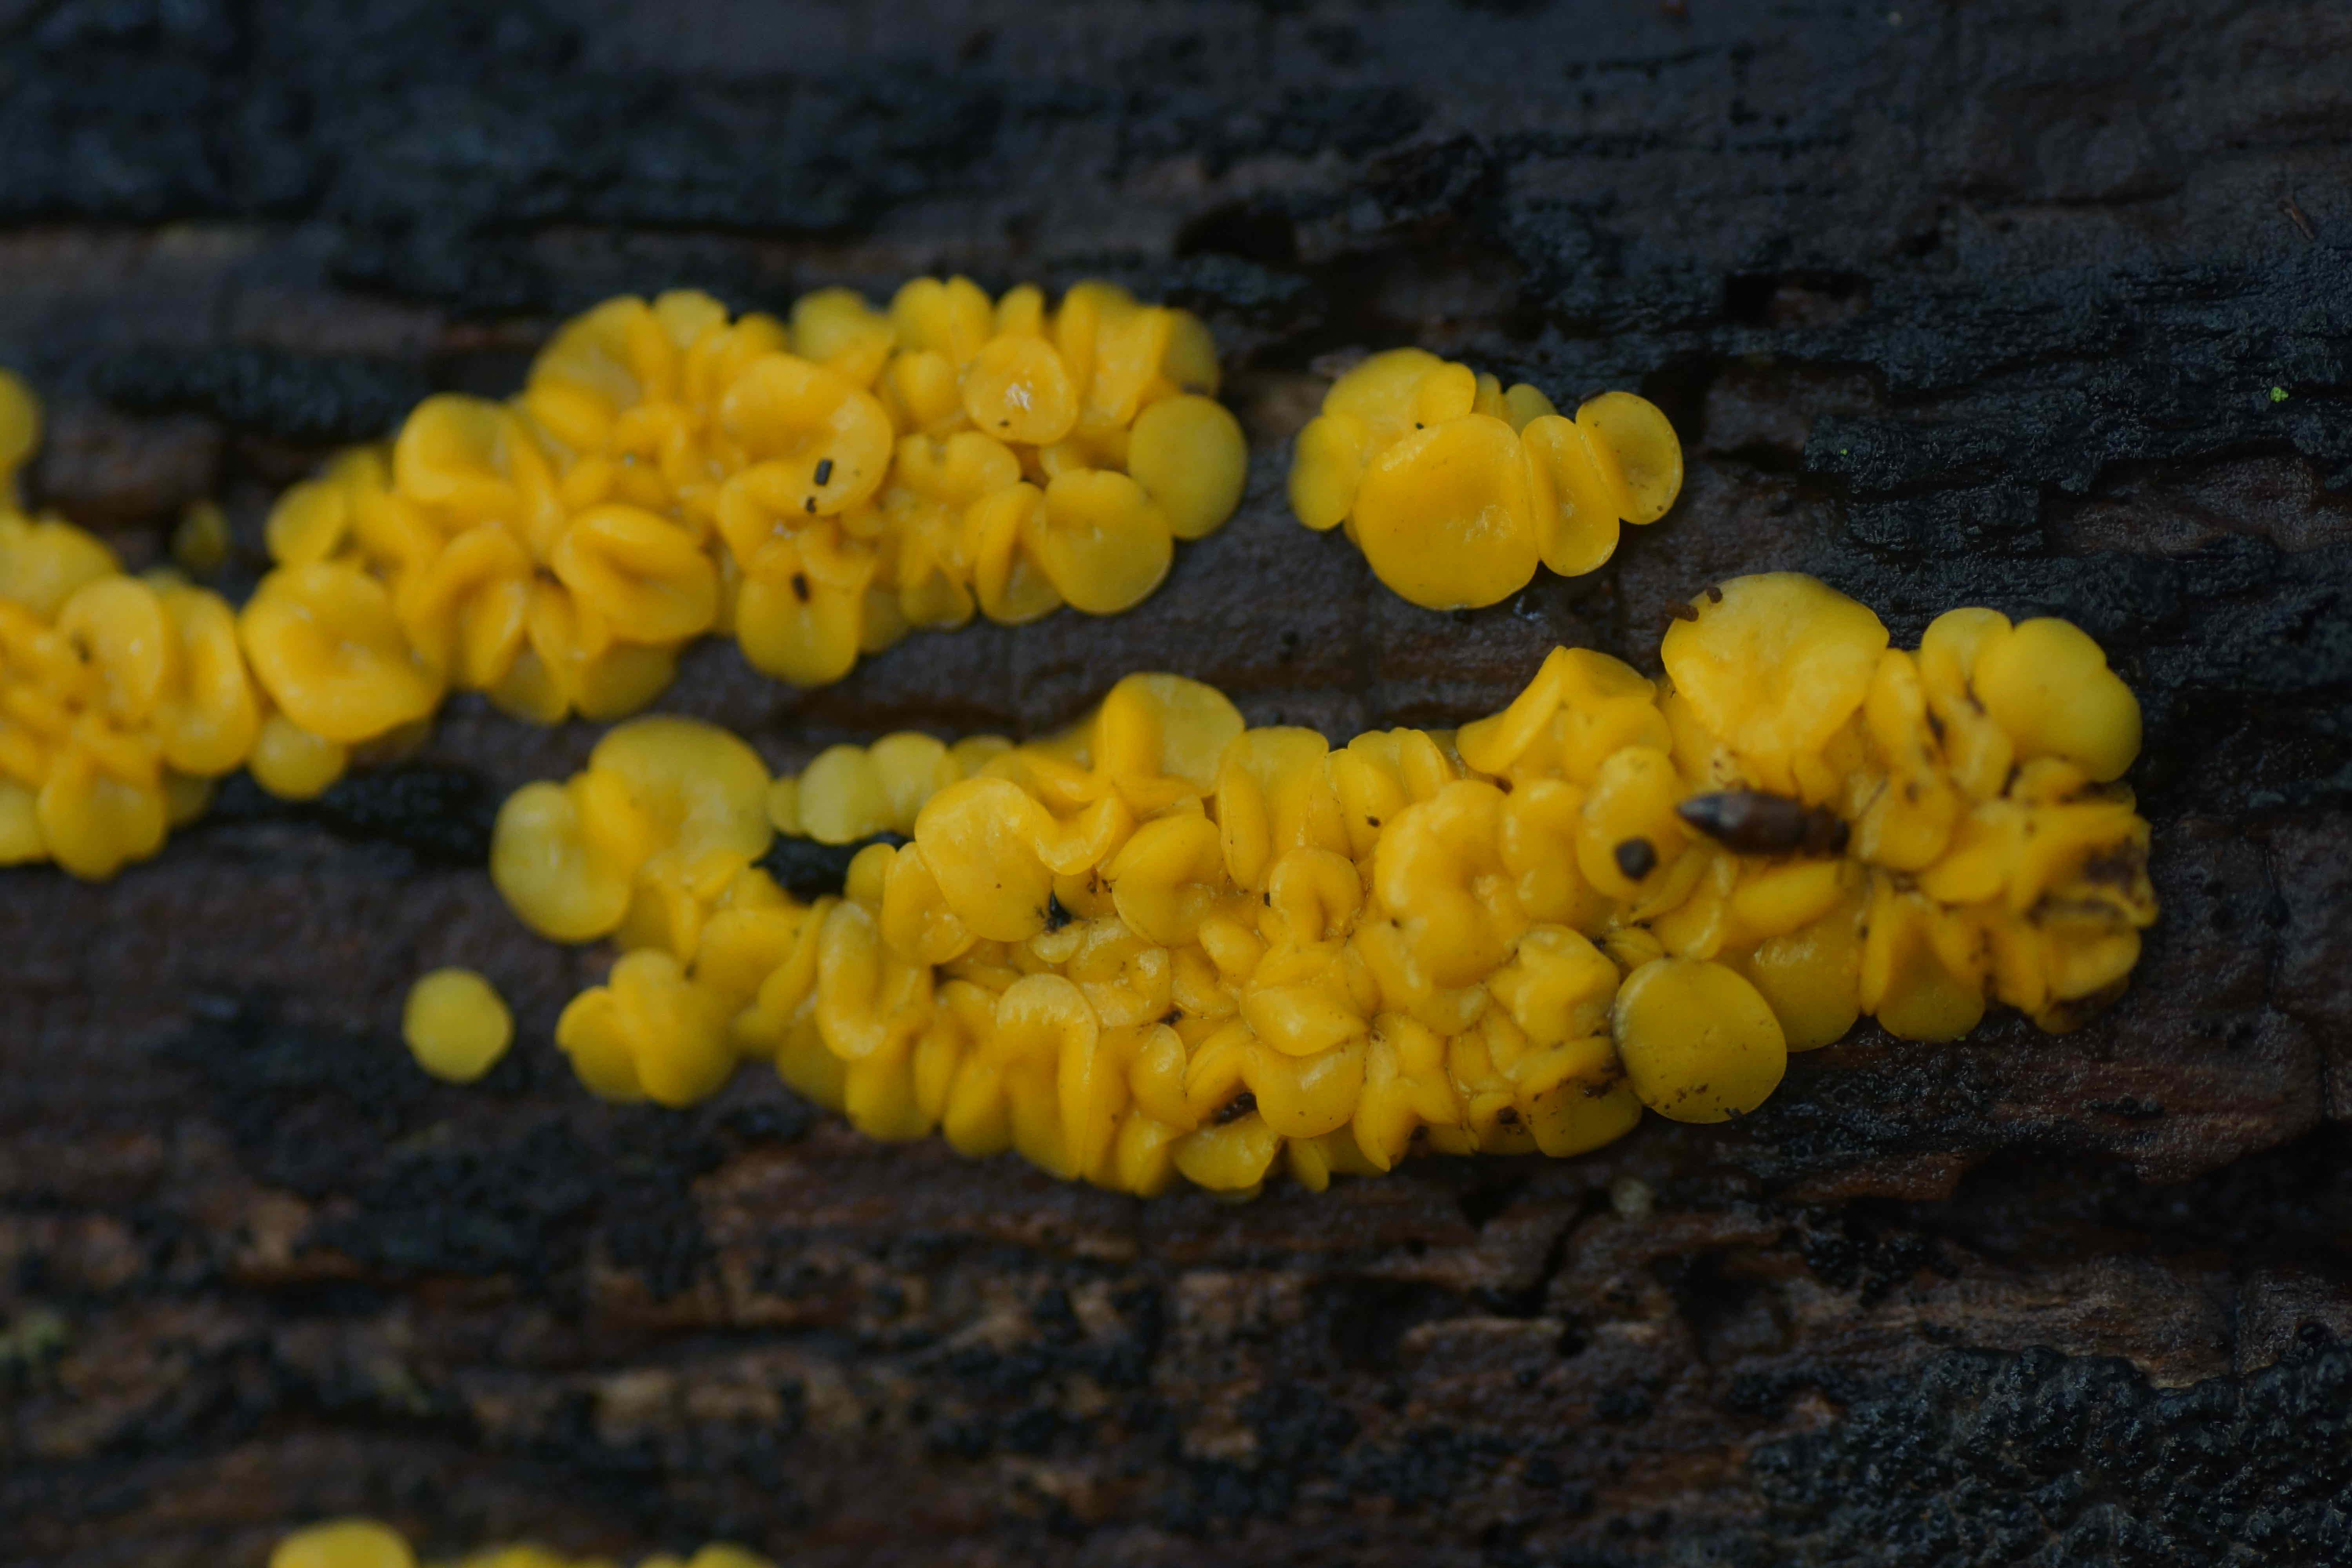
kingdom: Fungi
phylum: Ascomycota
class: Leotiomycetes
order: Helotiales
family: Pezizellaceae
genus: Calycina
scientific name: Calycina citrina
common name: almindelig gulskive
